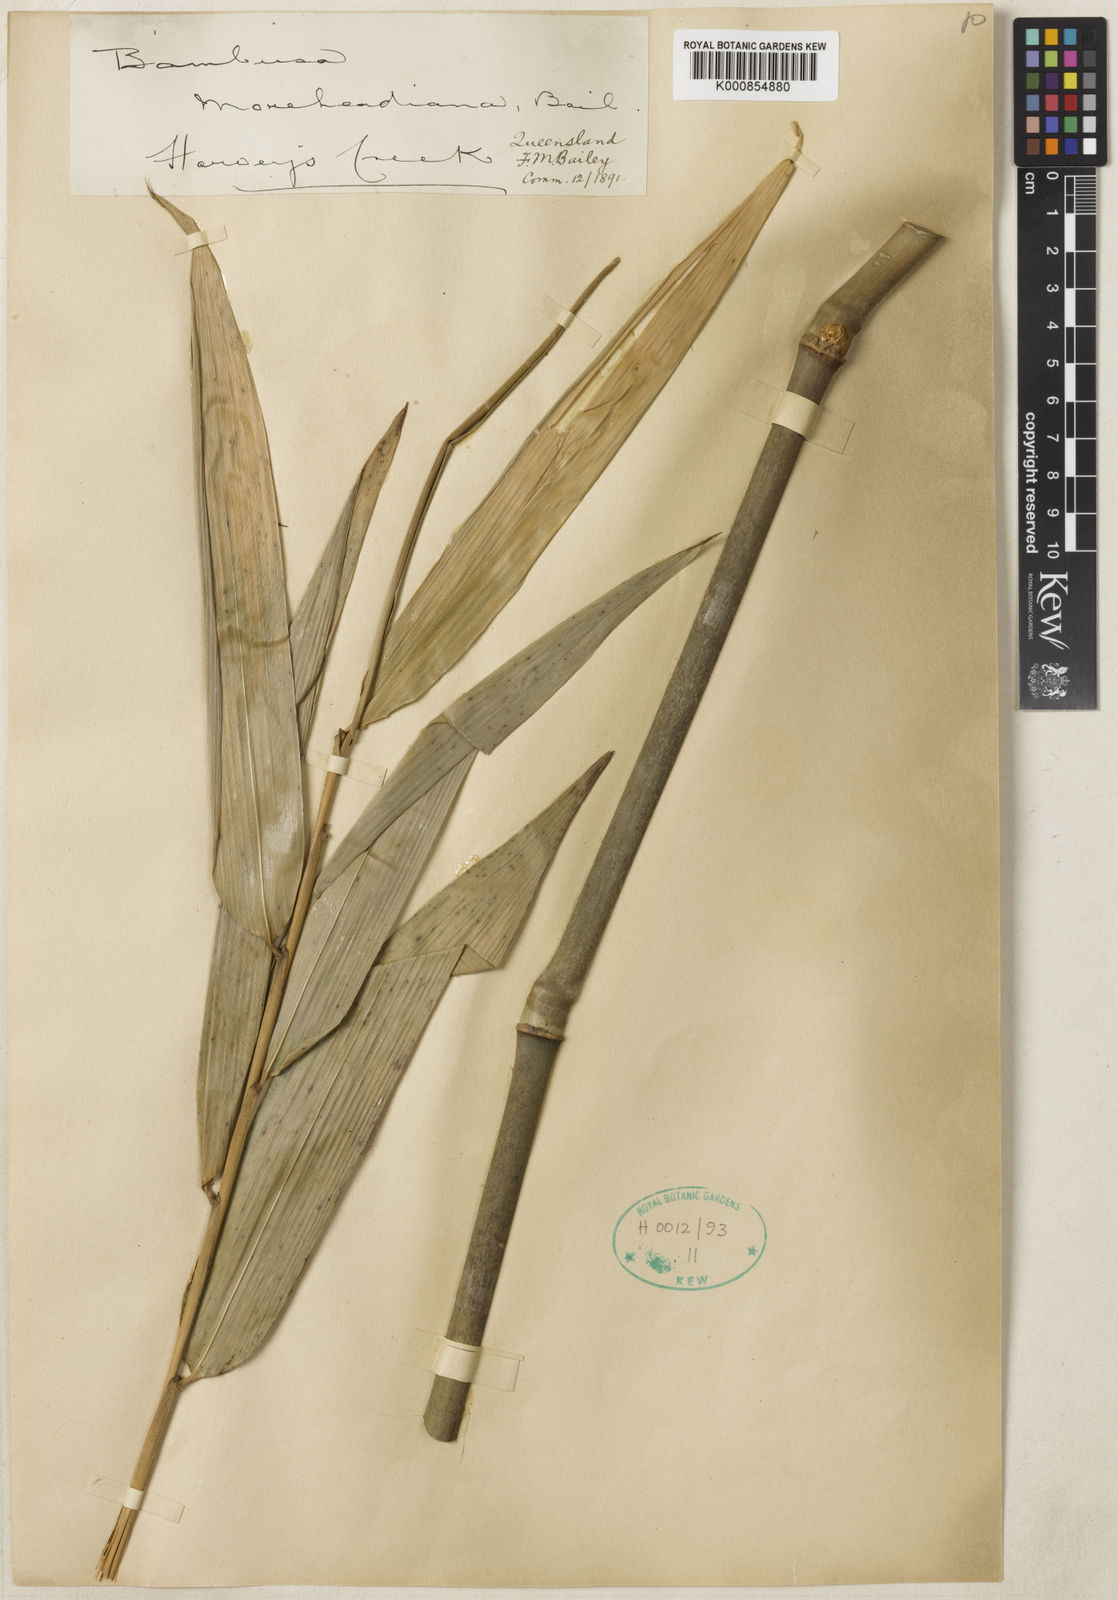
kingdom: Plantae
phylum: Tracheophyta
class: Liliopsida
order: Poales
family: Poaceae
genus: Mullerochloa
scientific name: Mullerochloa moreheadiana
